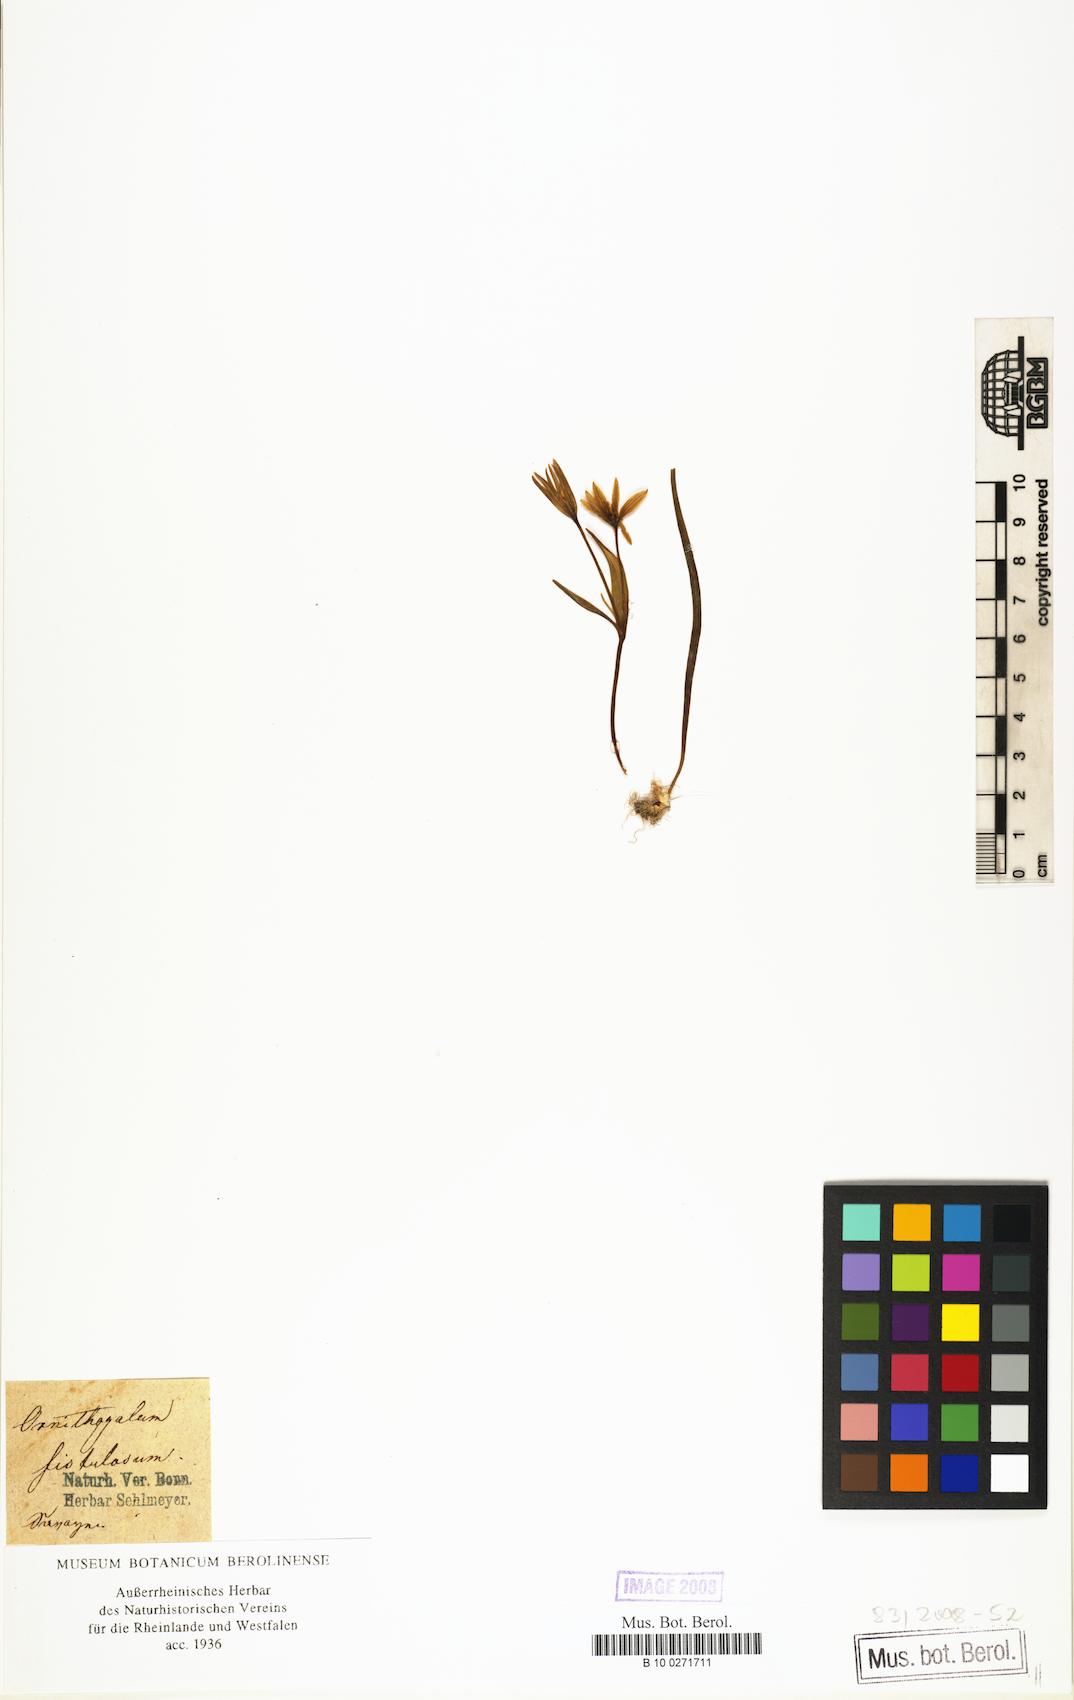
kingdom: Plantae
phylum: Tracheophyta
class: Liliopsida
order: Liliales
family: Liliaceae
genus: Gagea
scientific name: Gagea bohemica
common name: Early star-of-bethlehem
